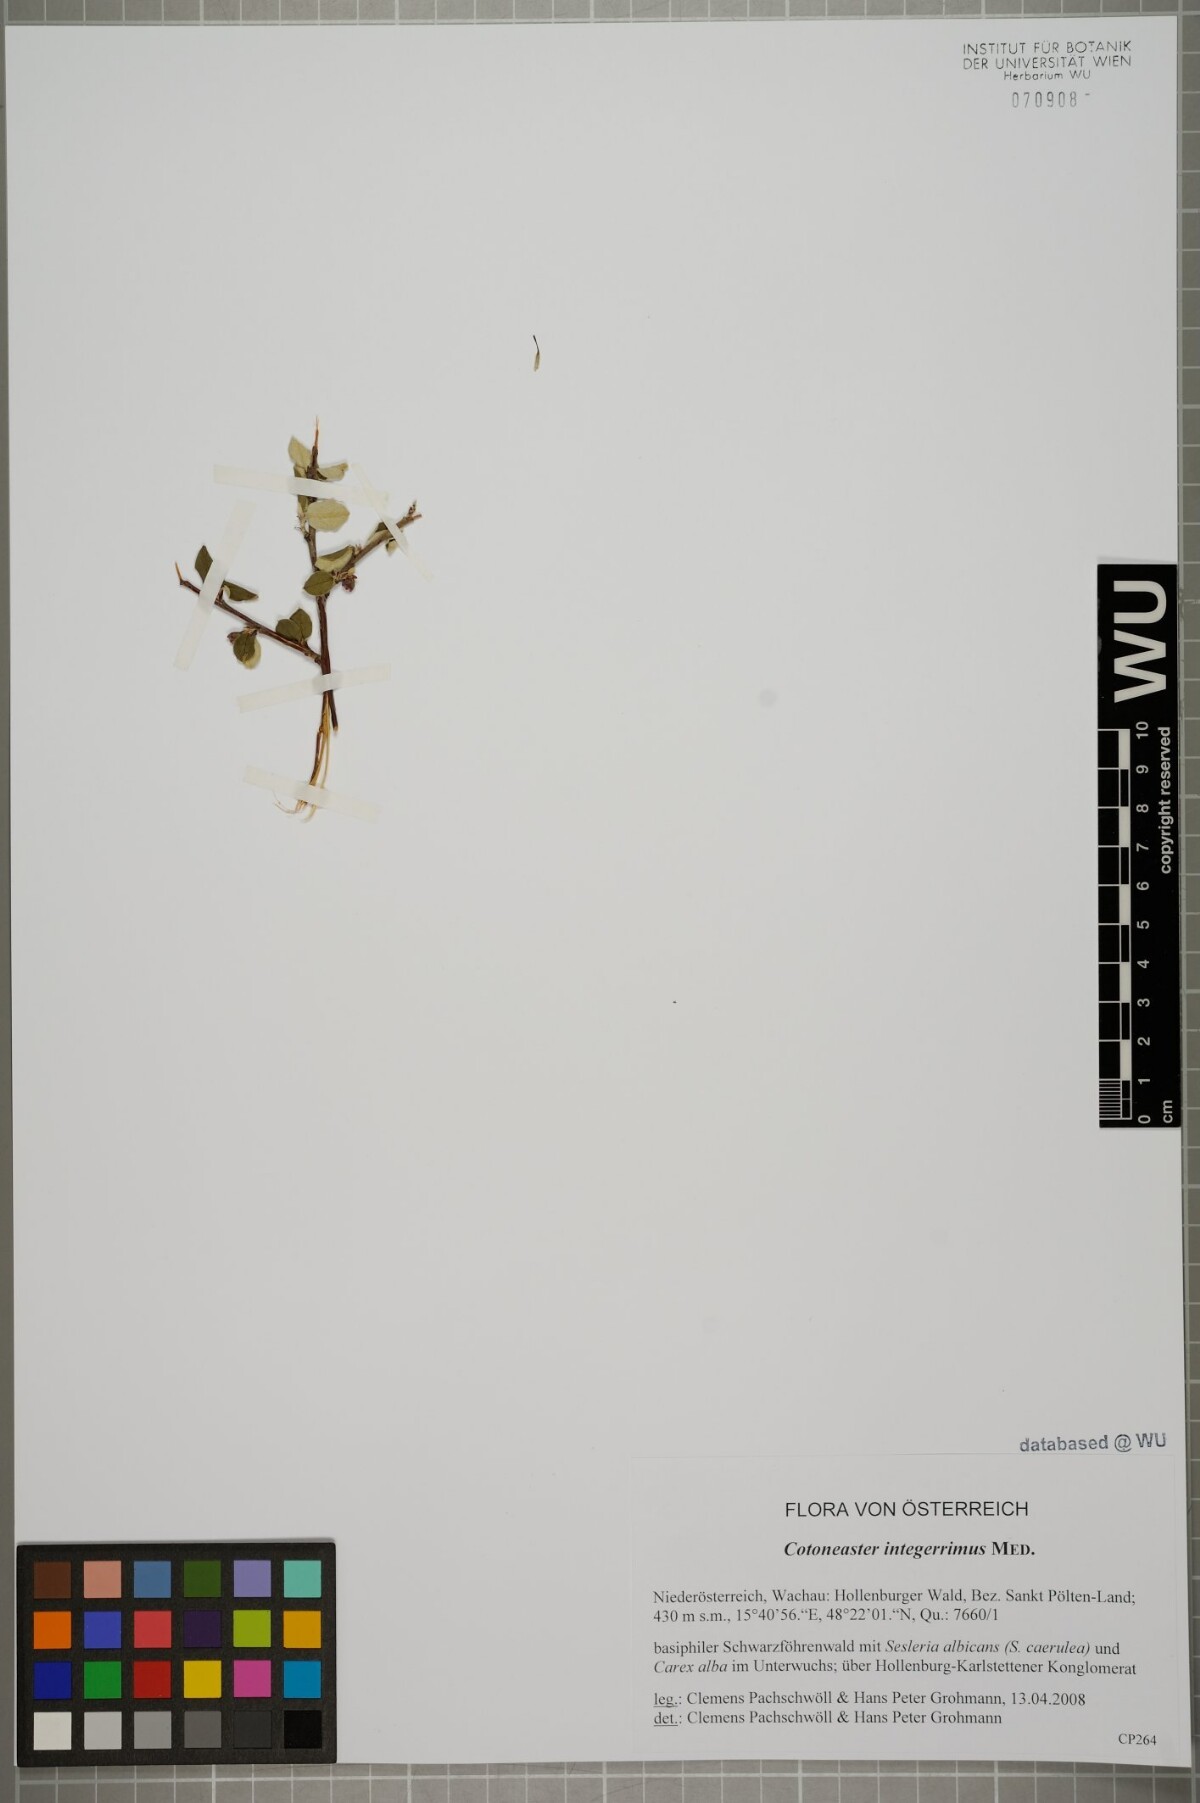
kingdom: Plantae
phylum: Tracheophyta
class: Magnoliopsida
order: Rosales
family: Rosaceae
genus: Cotoneaster
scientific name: Cotoneaster integerrimus
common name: Wild cotoneaster
